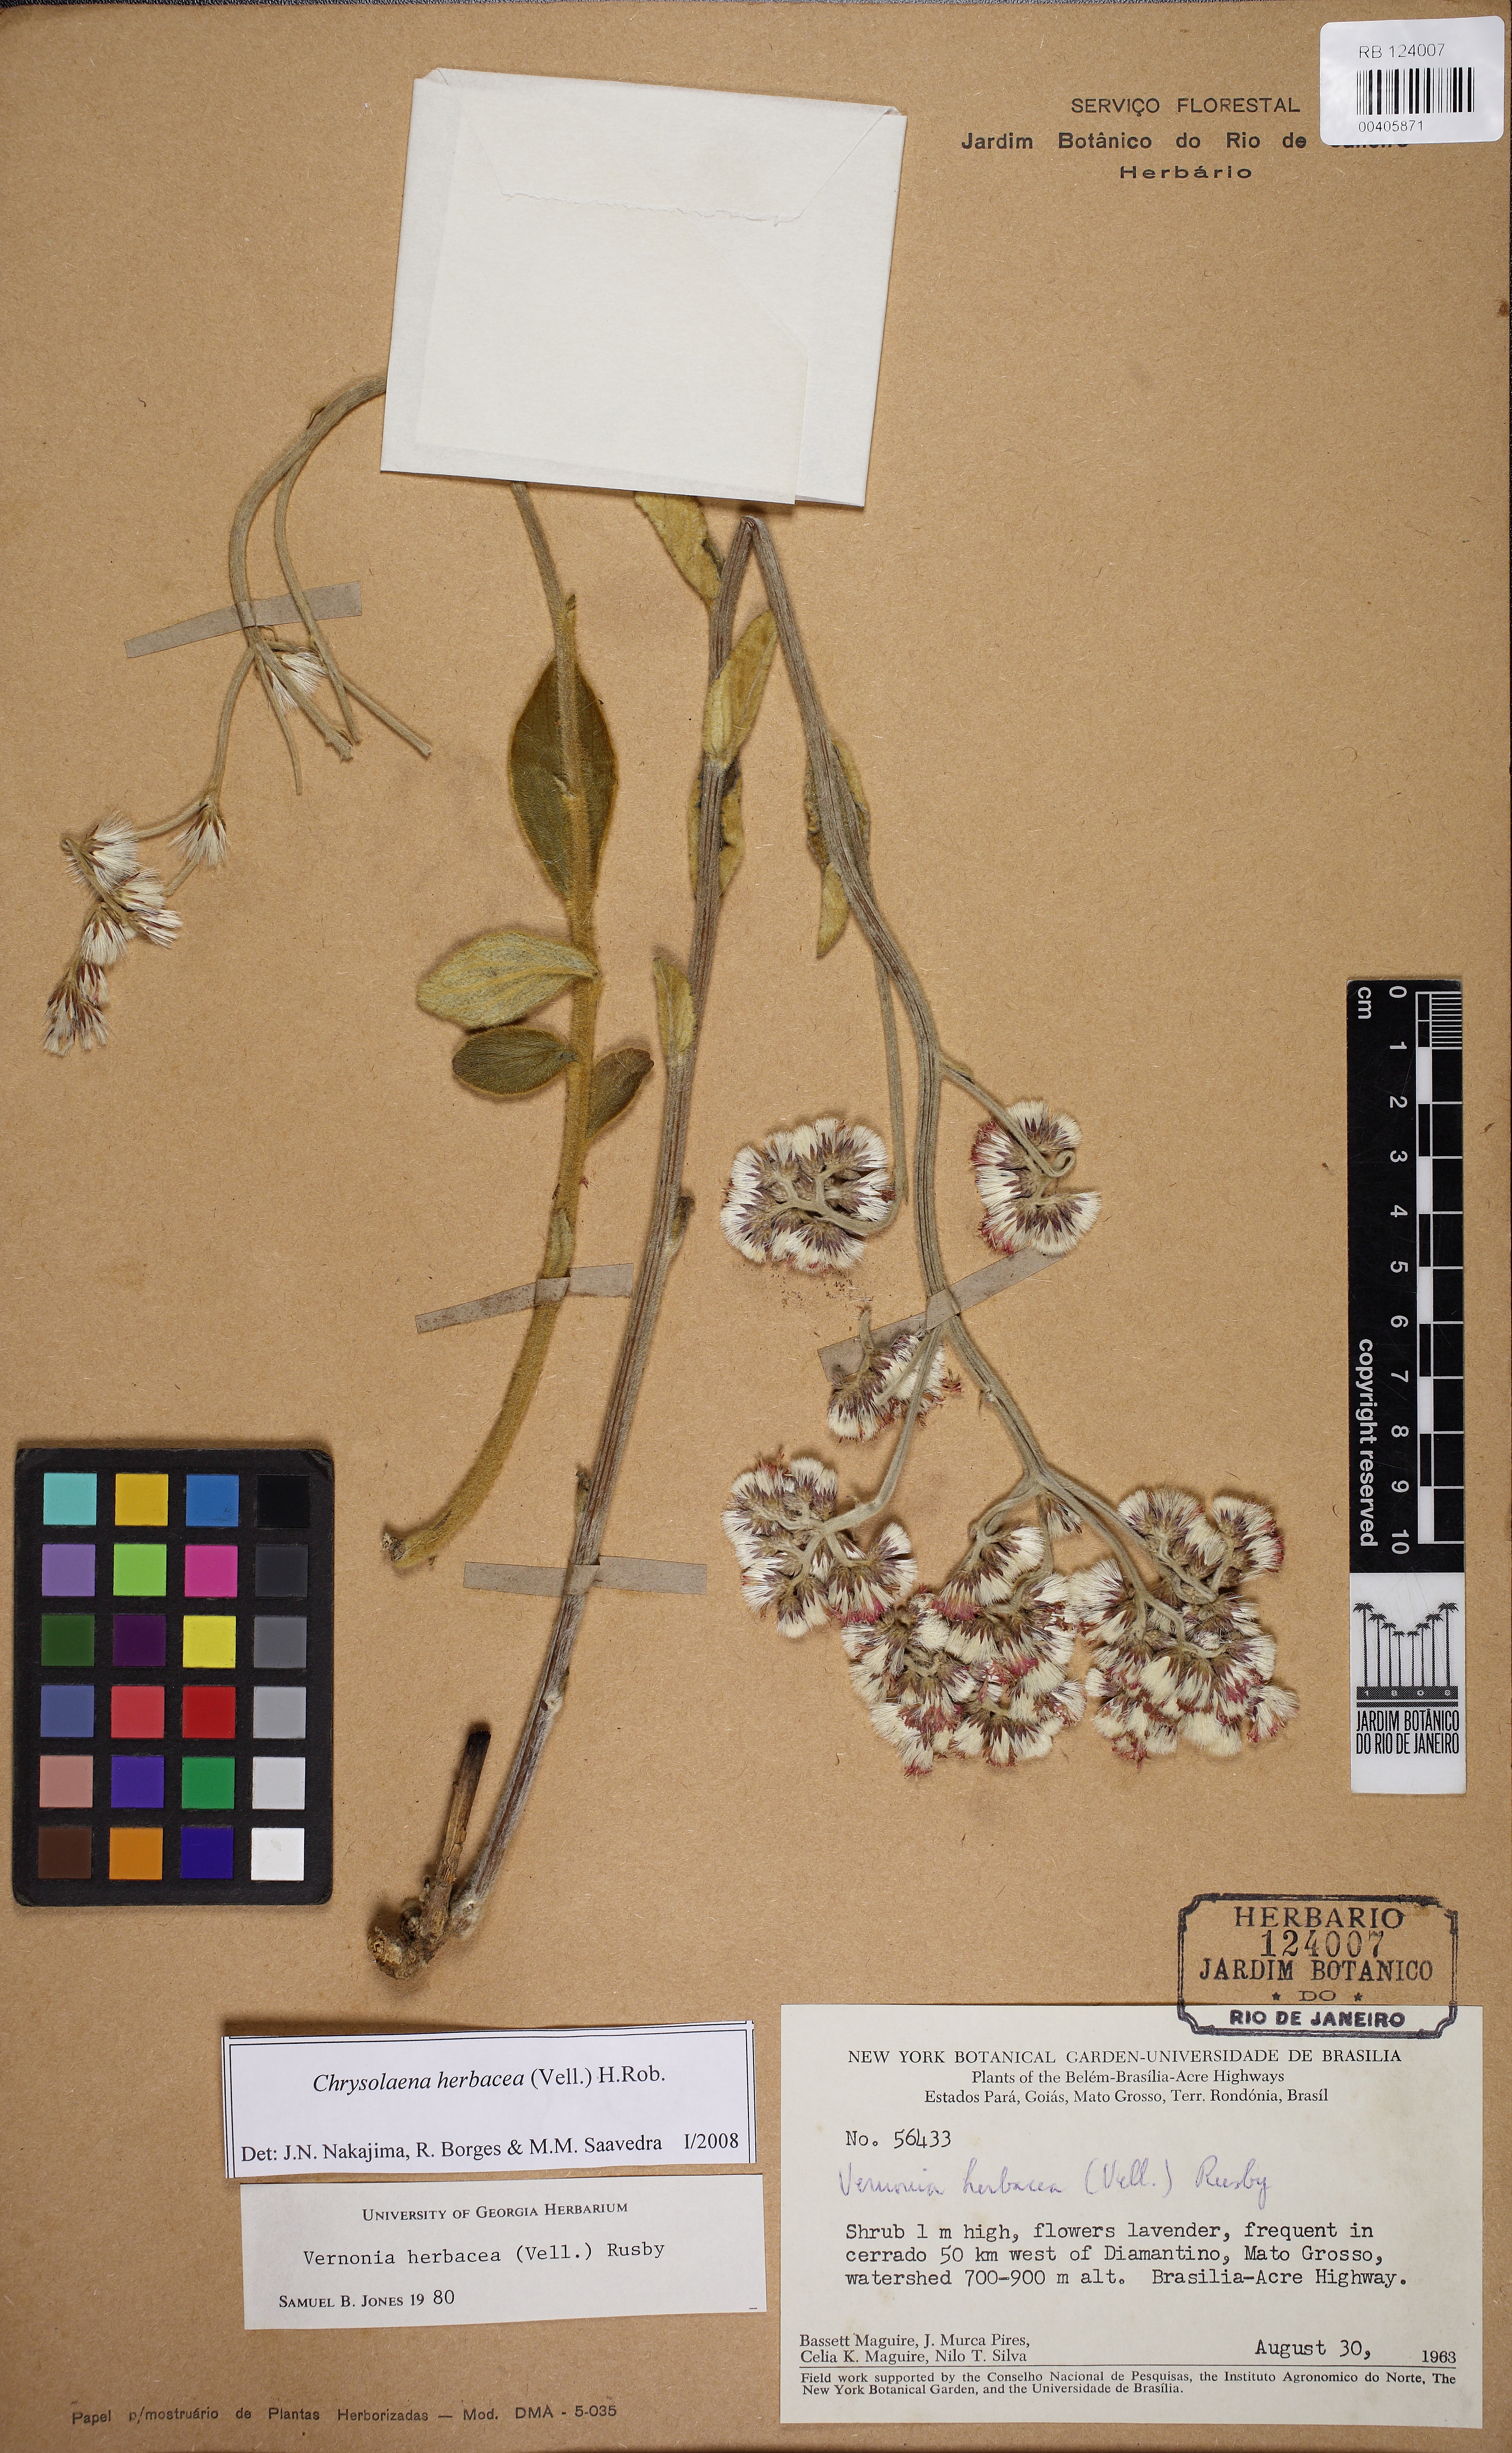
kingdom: Plantae
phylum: Tracheophyta
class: Magnoliopsida
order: Asterales
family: Asteraceae
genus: Chrysolaena
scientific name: Chrysolaena obovata
